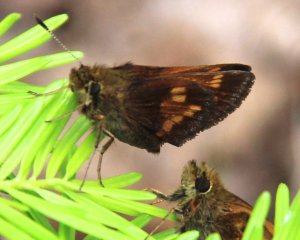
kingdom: Animalia
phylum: Arthropoda
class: Insecta
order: Lepidoptera
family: Hesperiidae
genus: Lon
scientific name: Lon hobomok
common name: Hobomok Skipper
